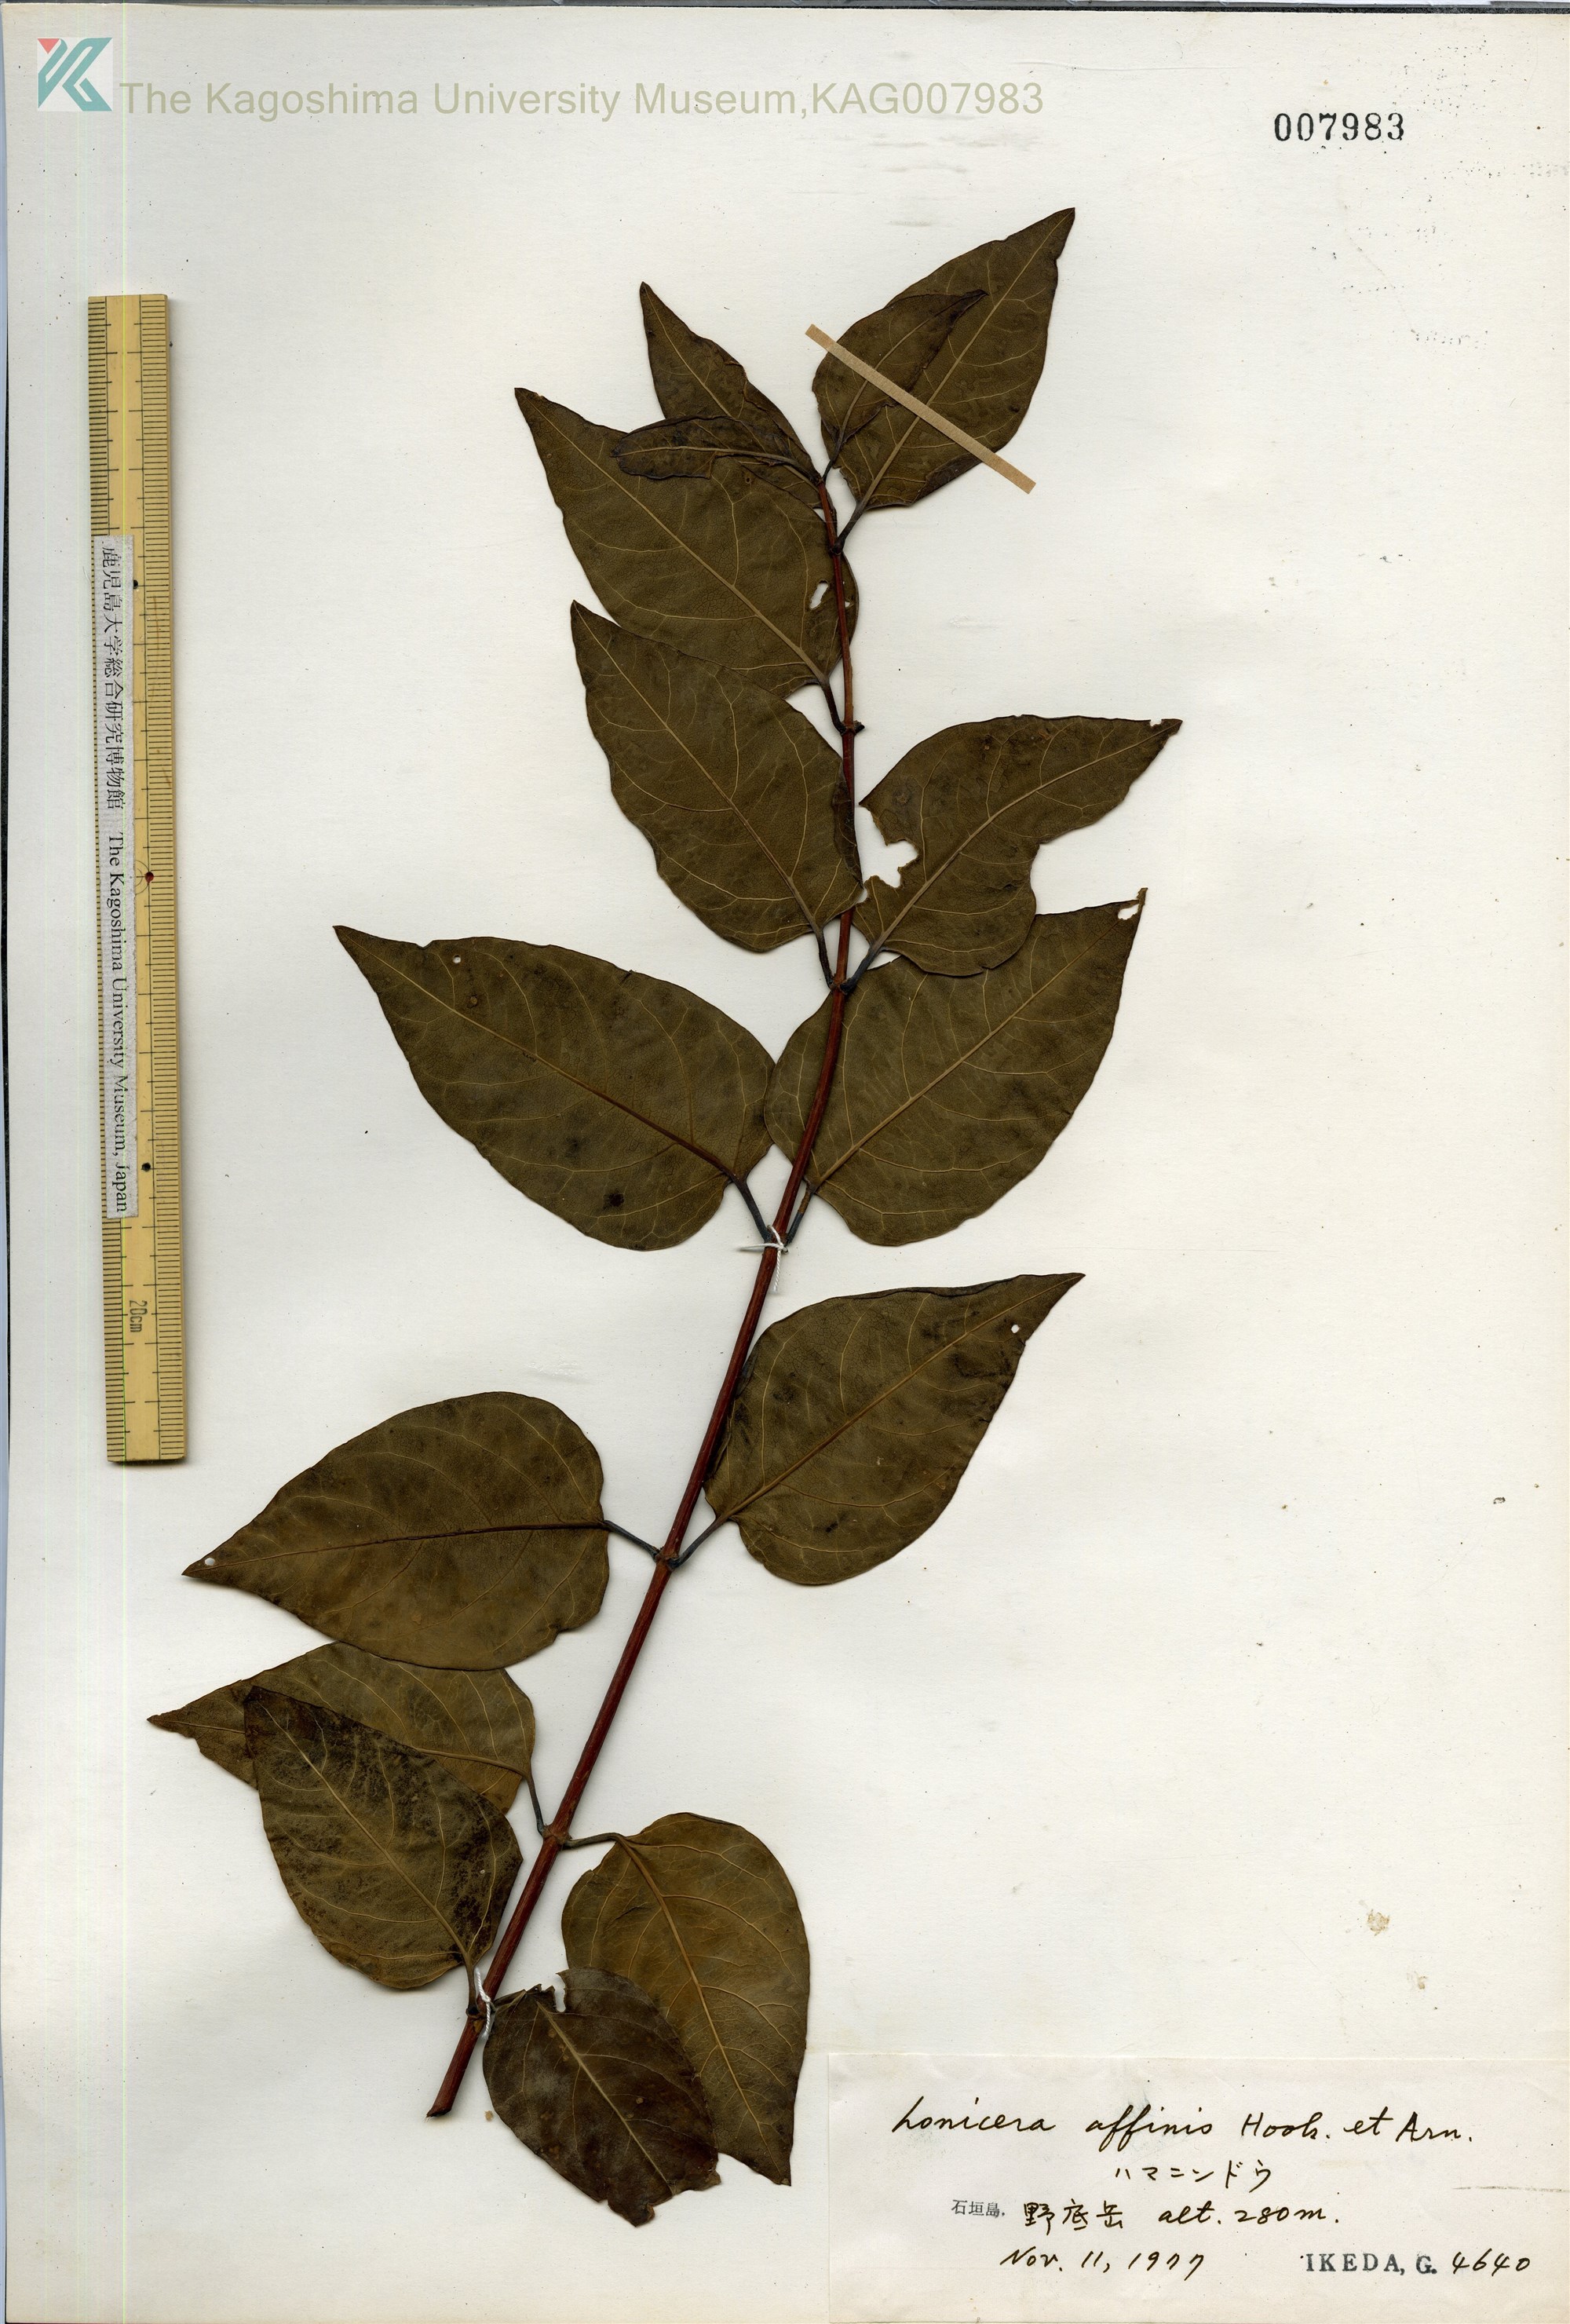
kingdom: Plantae
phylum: Tracheophyta
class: Magnoliopsida
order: Dipsacales
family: Caprifoliaceae
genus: Lonicera
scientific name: Lonicera affinis
